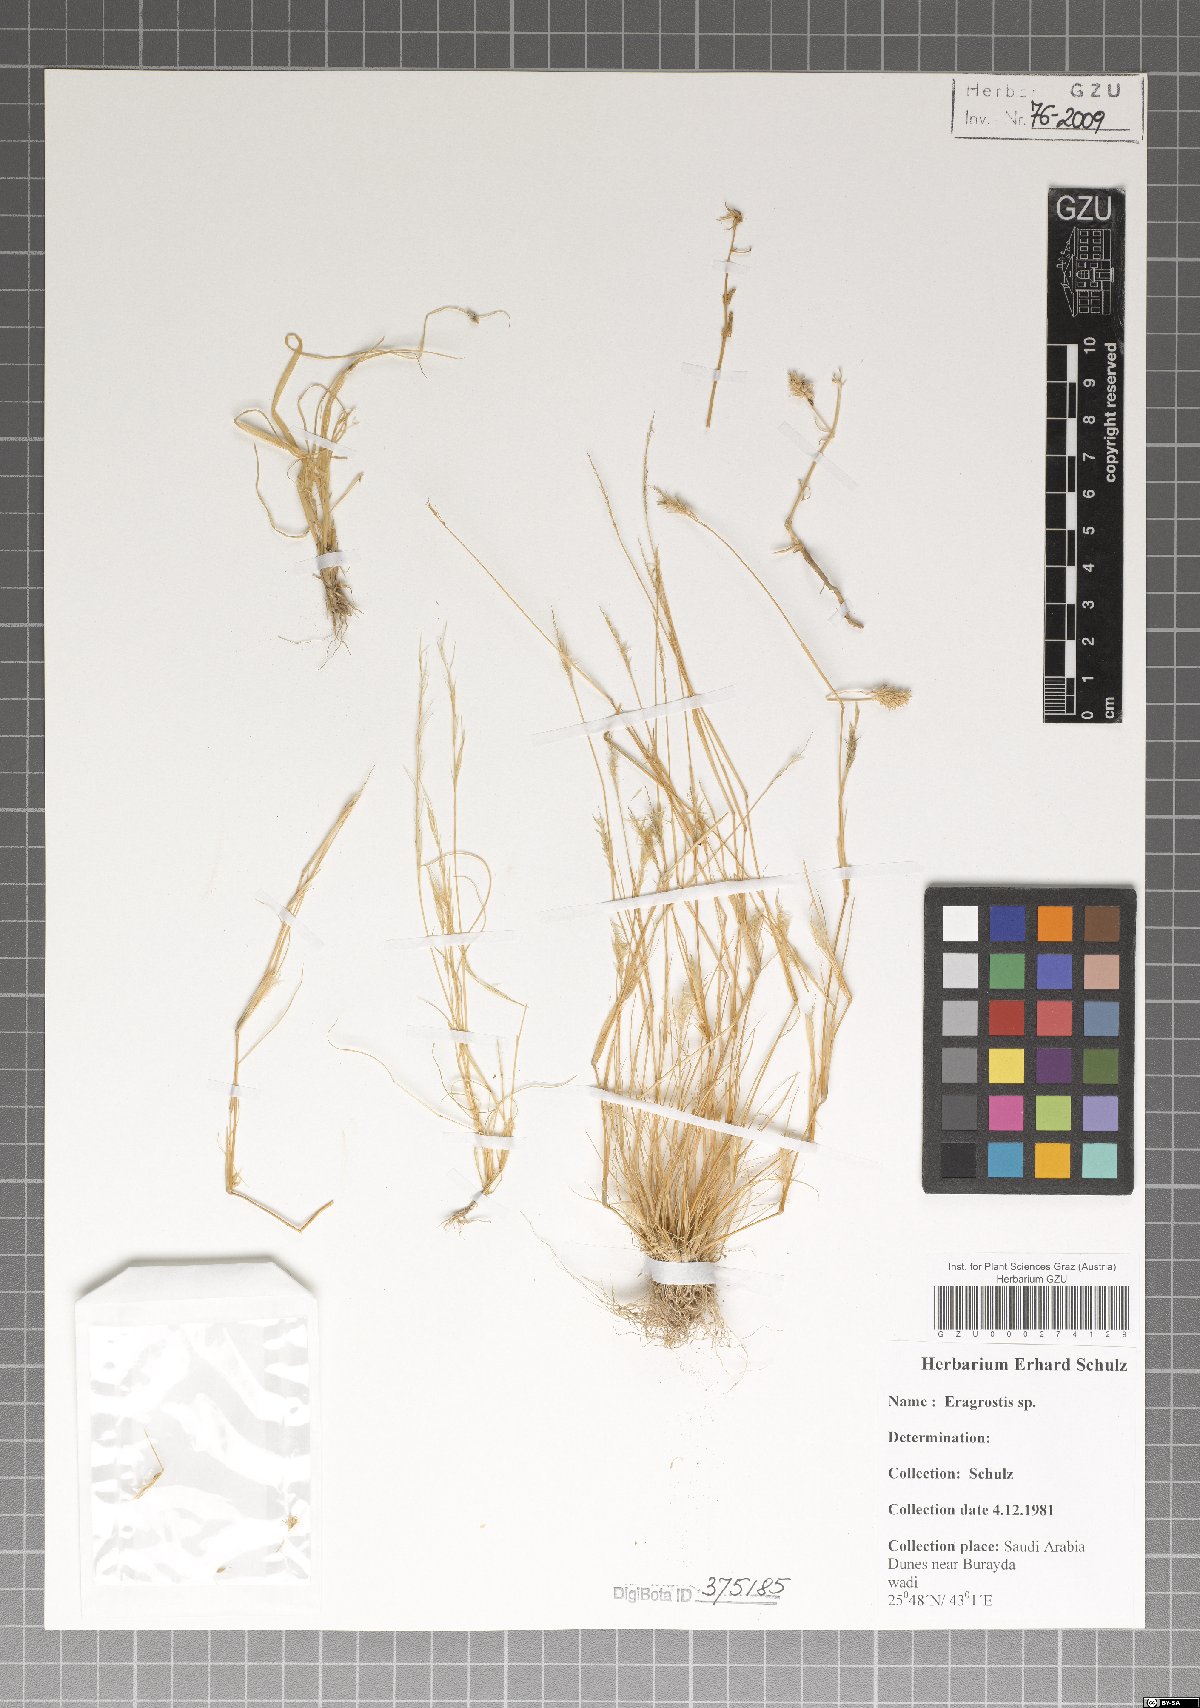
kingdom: Plantae
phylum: Tracheophyta
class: Liliopsida
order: Poales
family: Poaceae
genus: Eragrostis
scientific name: Eragrostis
